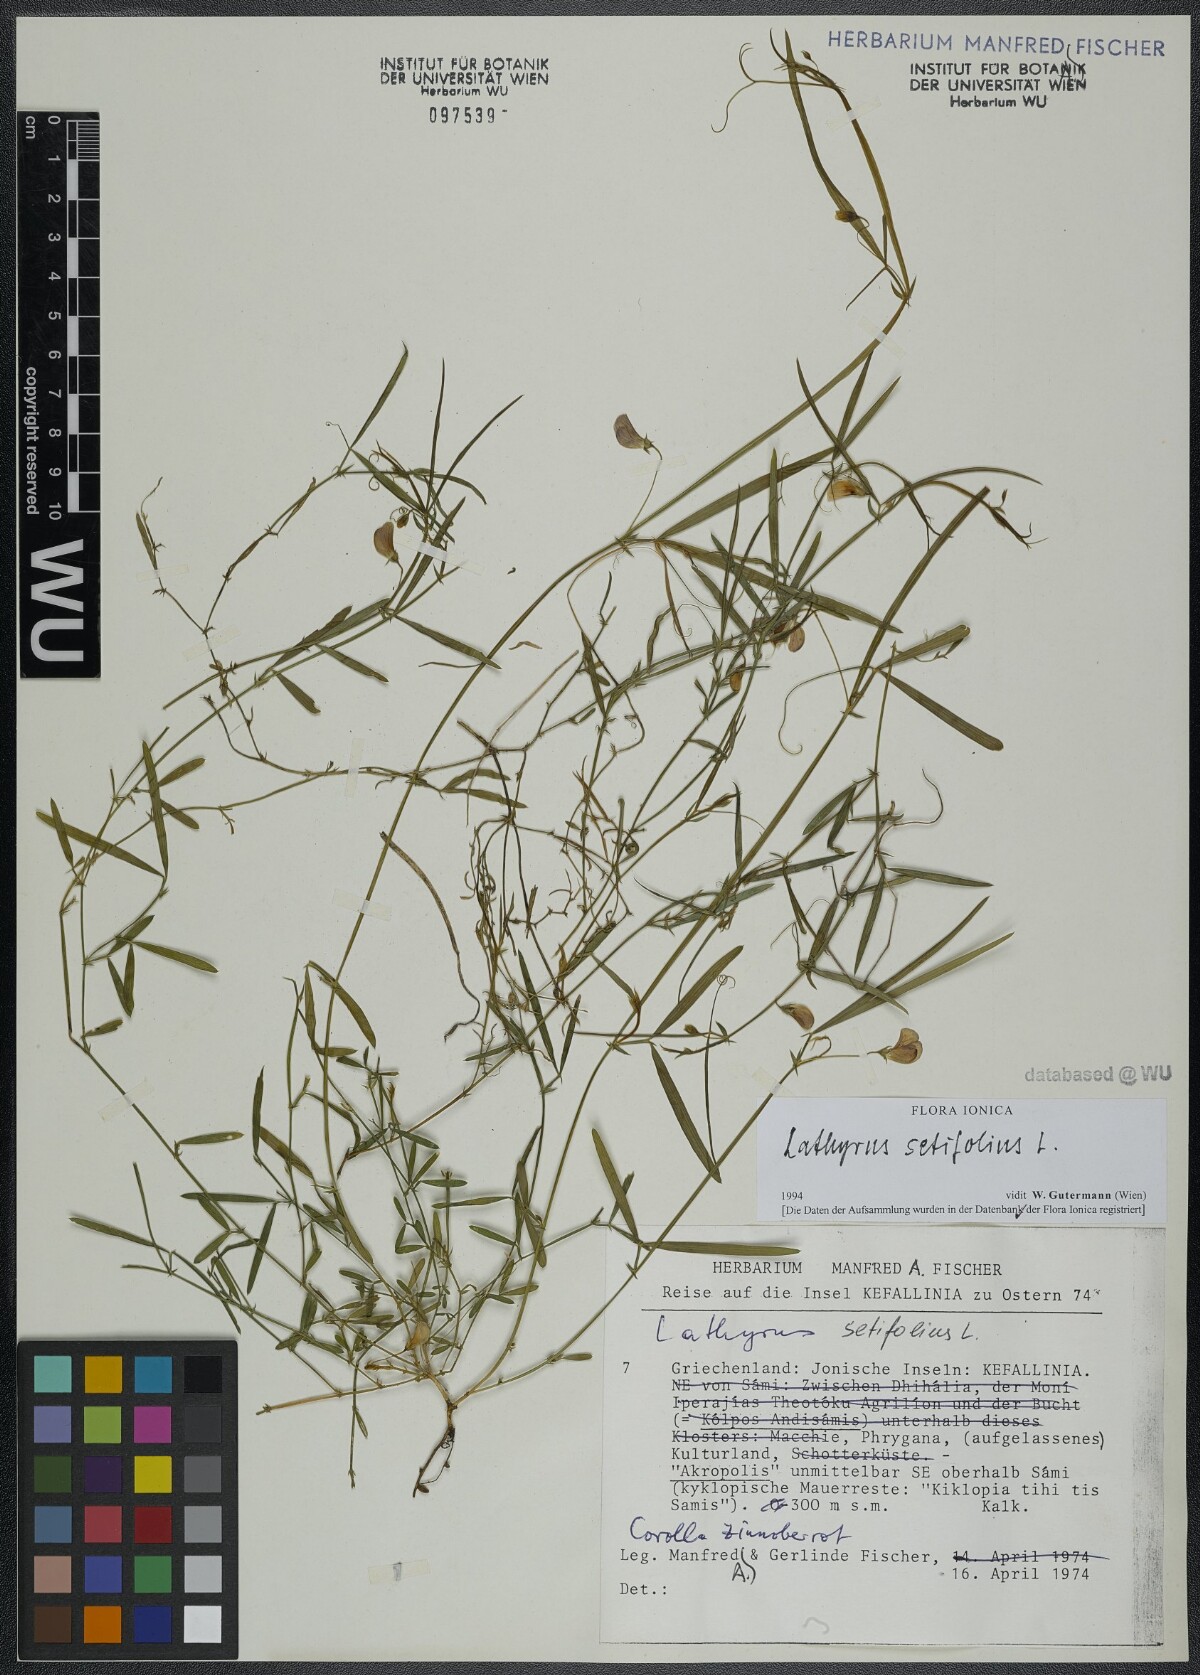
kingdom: Plantae
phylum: Tracheophyta
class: Magnoliopsida
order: Fabales
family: Fabaceae
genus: Lathyrus
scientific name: Lathyrus setifolius
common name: Brown vetchling
